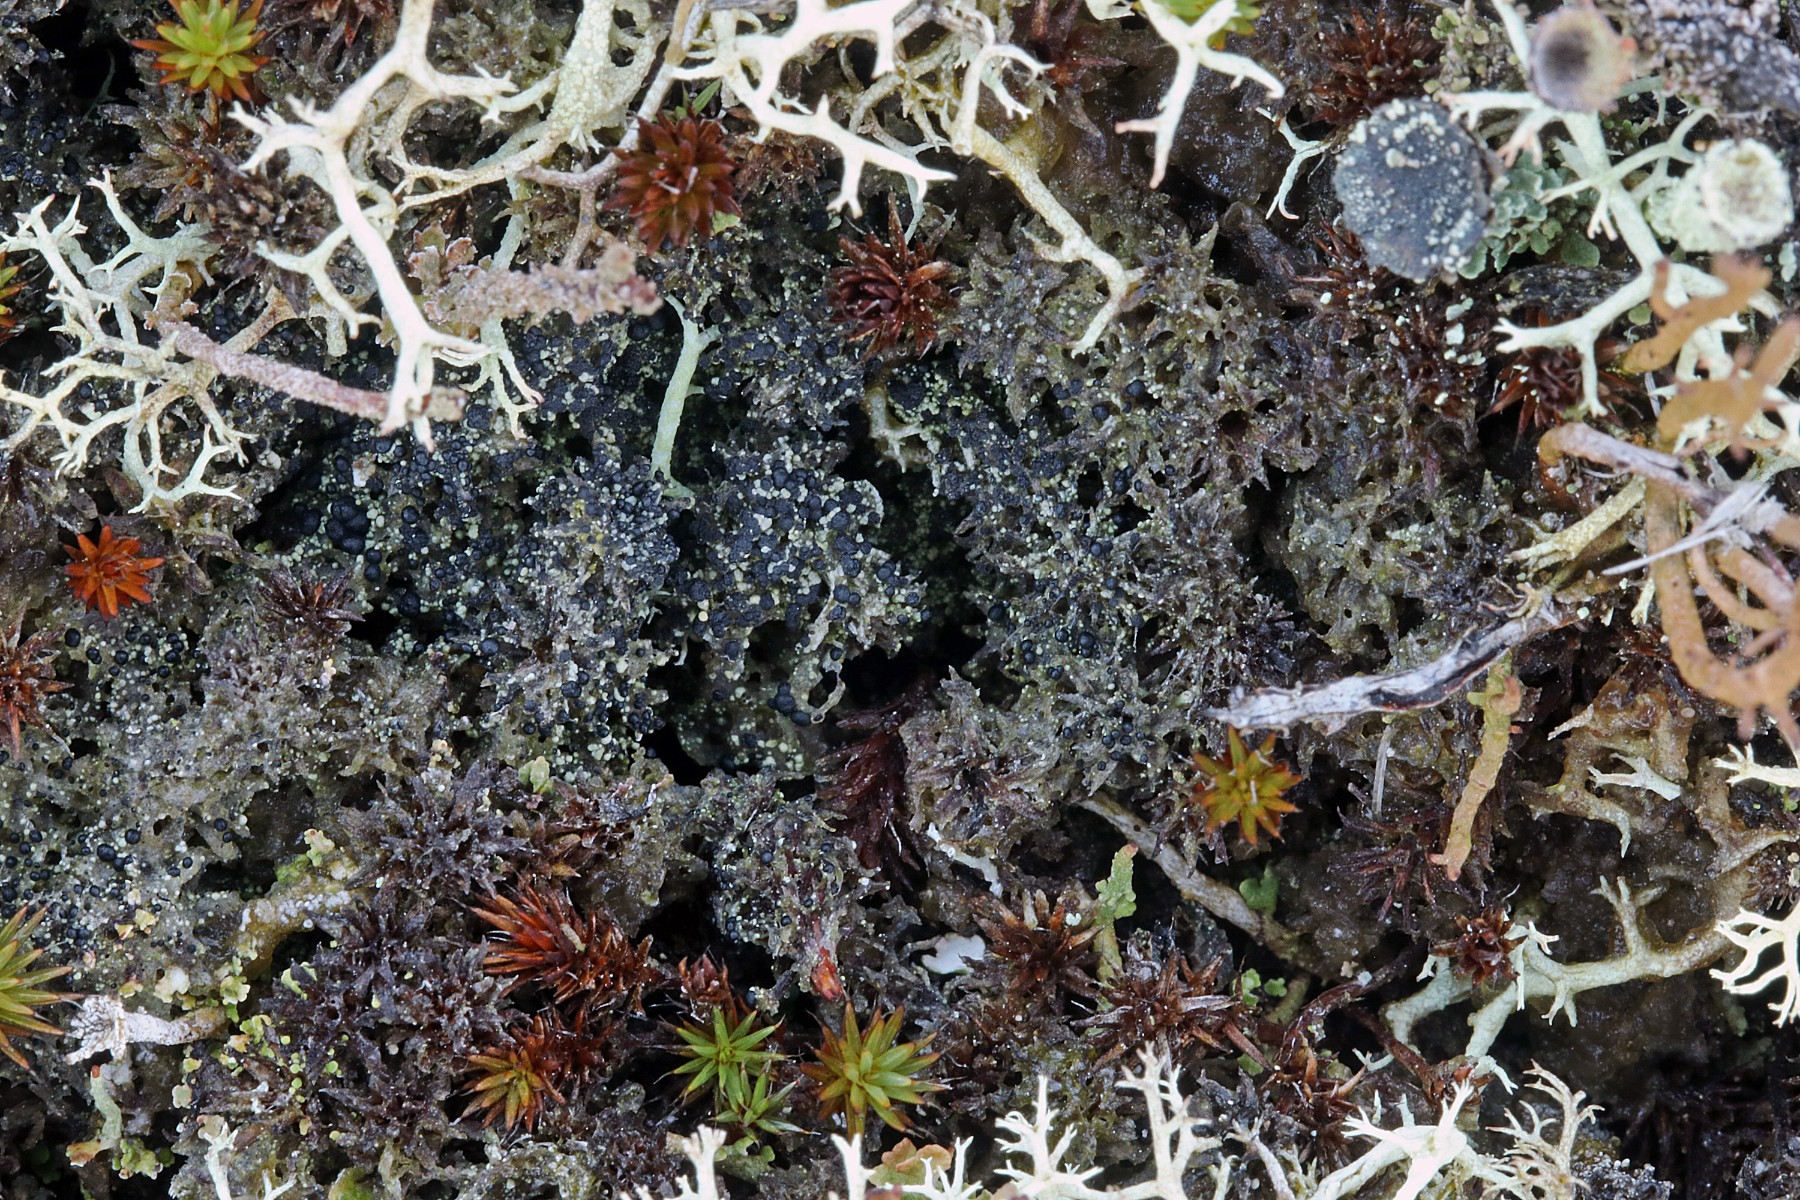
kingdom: Fungi
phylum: Ascomycota
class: Lecanoromycetes
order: Lecanorales
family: Byssolomataceae
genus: Micarea
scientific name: Micarea lignaria
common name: tørve-knaplav
